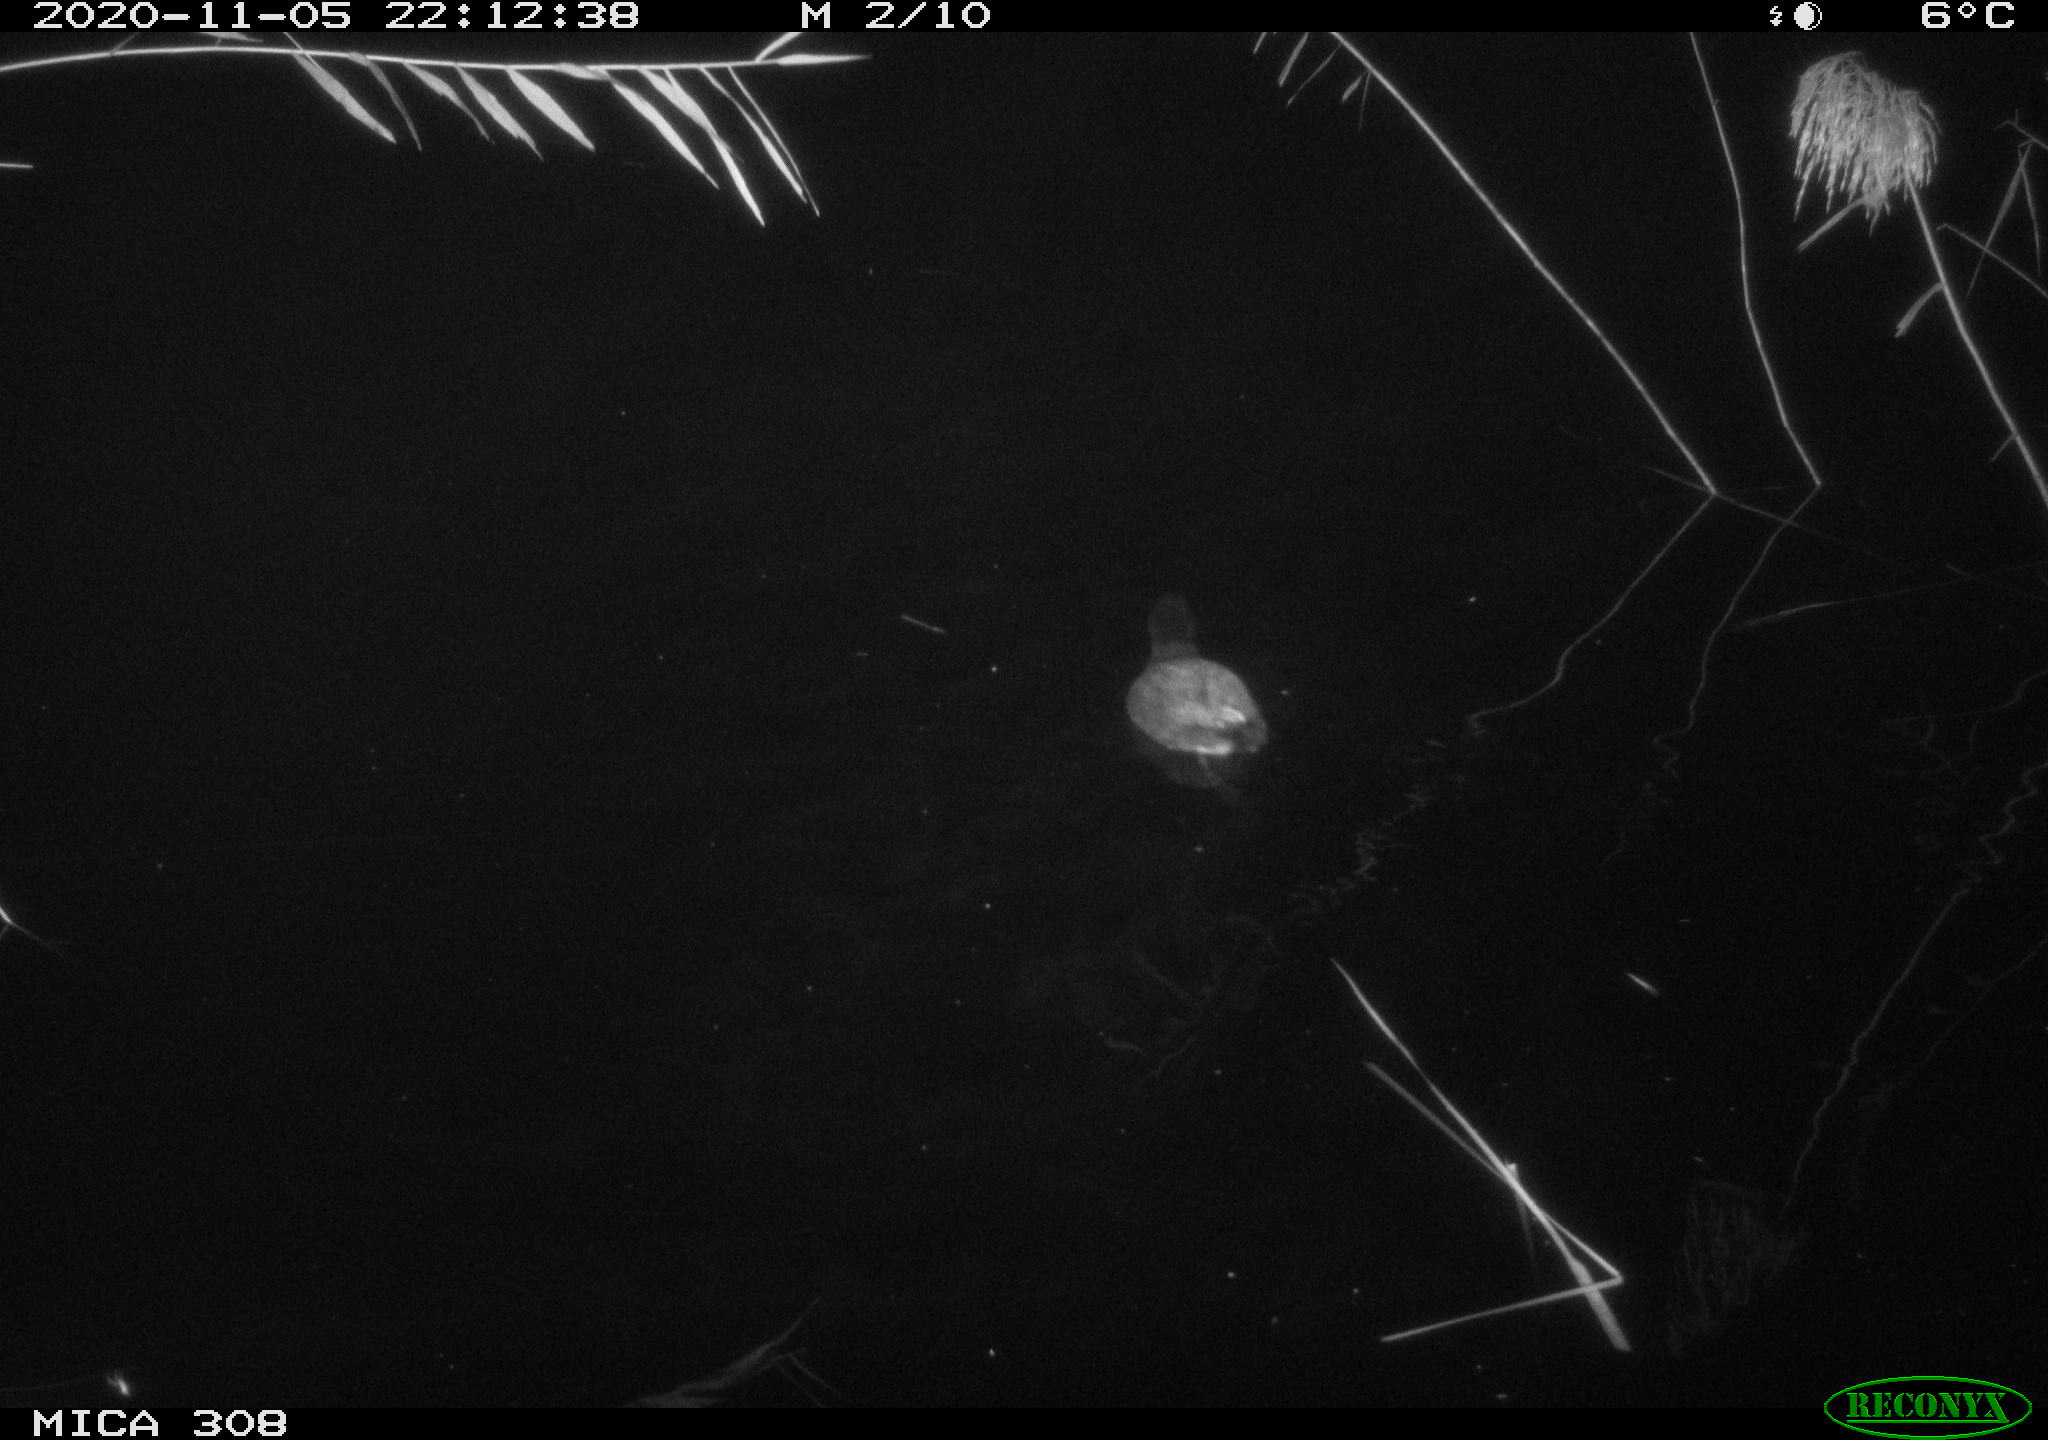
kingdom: Animalia
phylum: Chordata
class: Aves
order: Gruiformes
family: Rallidae
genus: Fulica
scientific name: Fulica atra
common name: Eurasian coot
